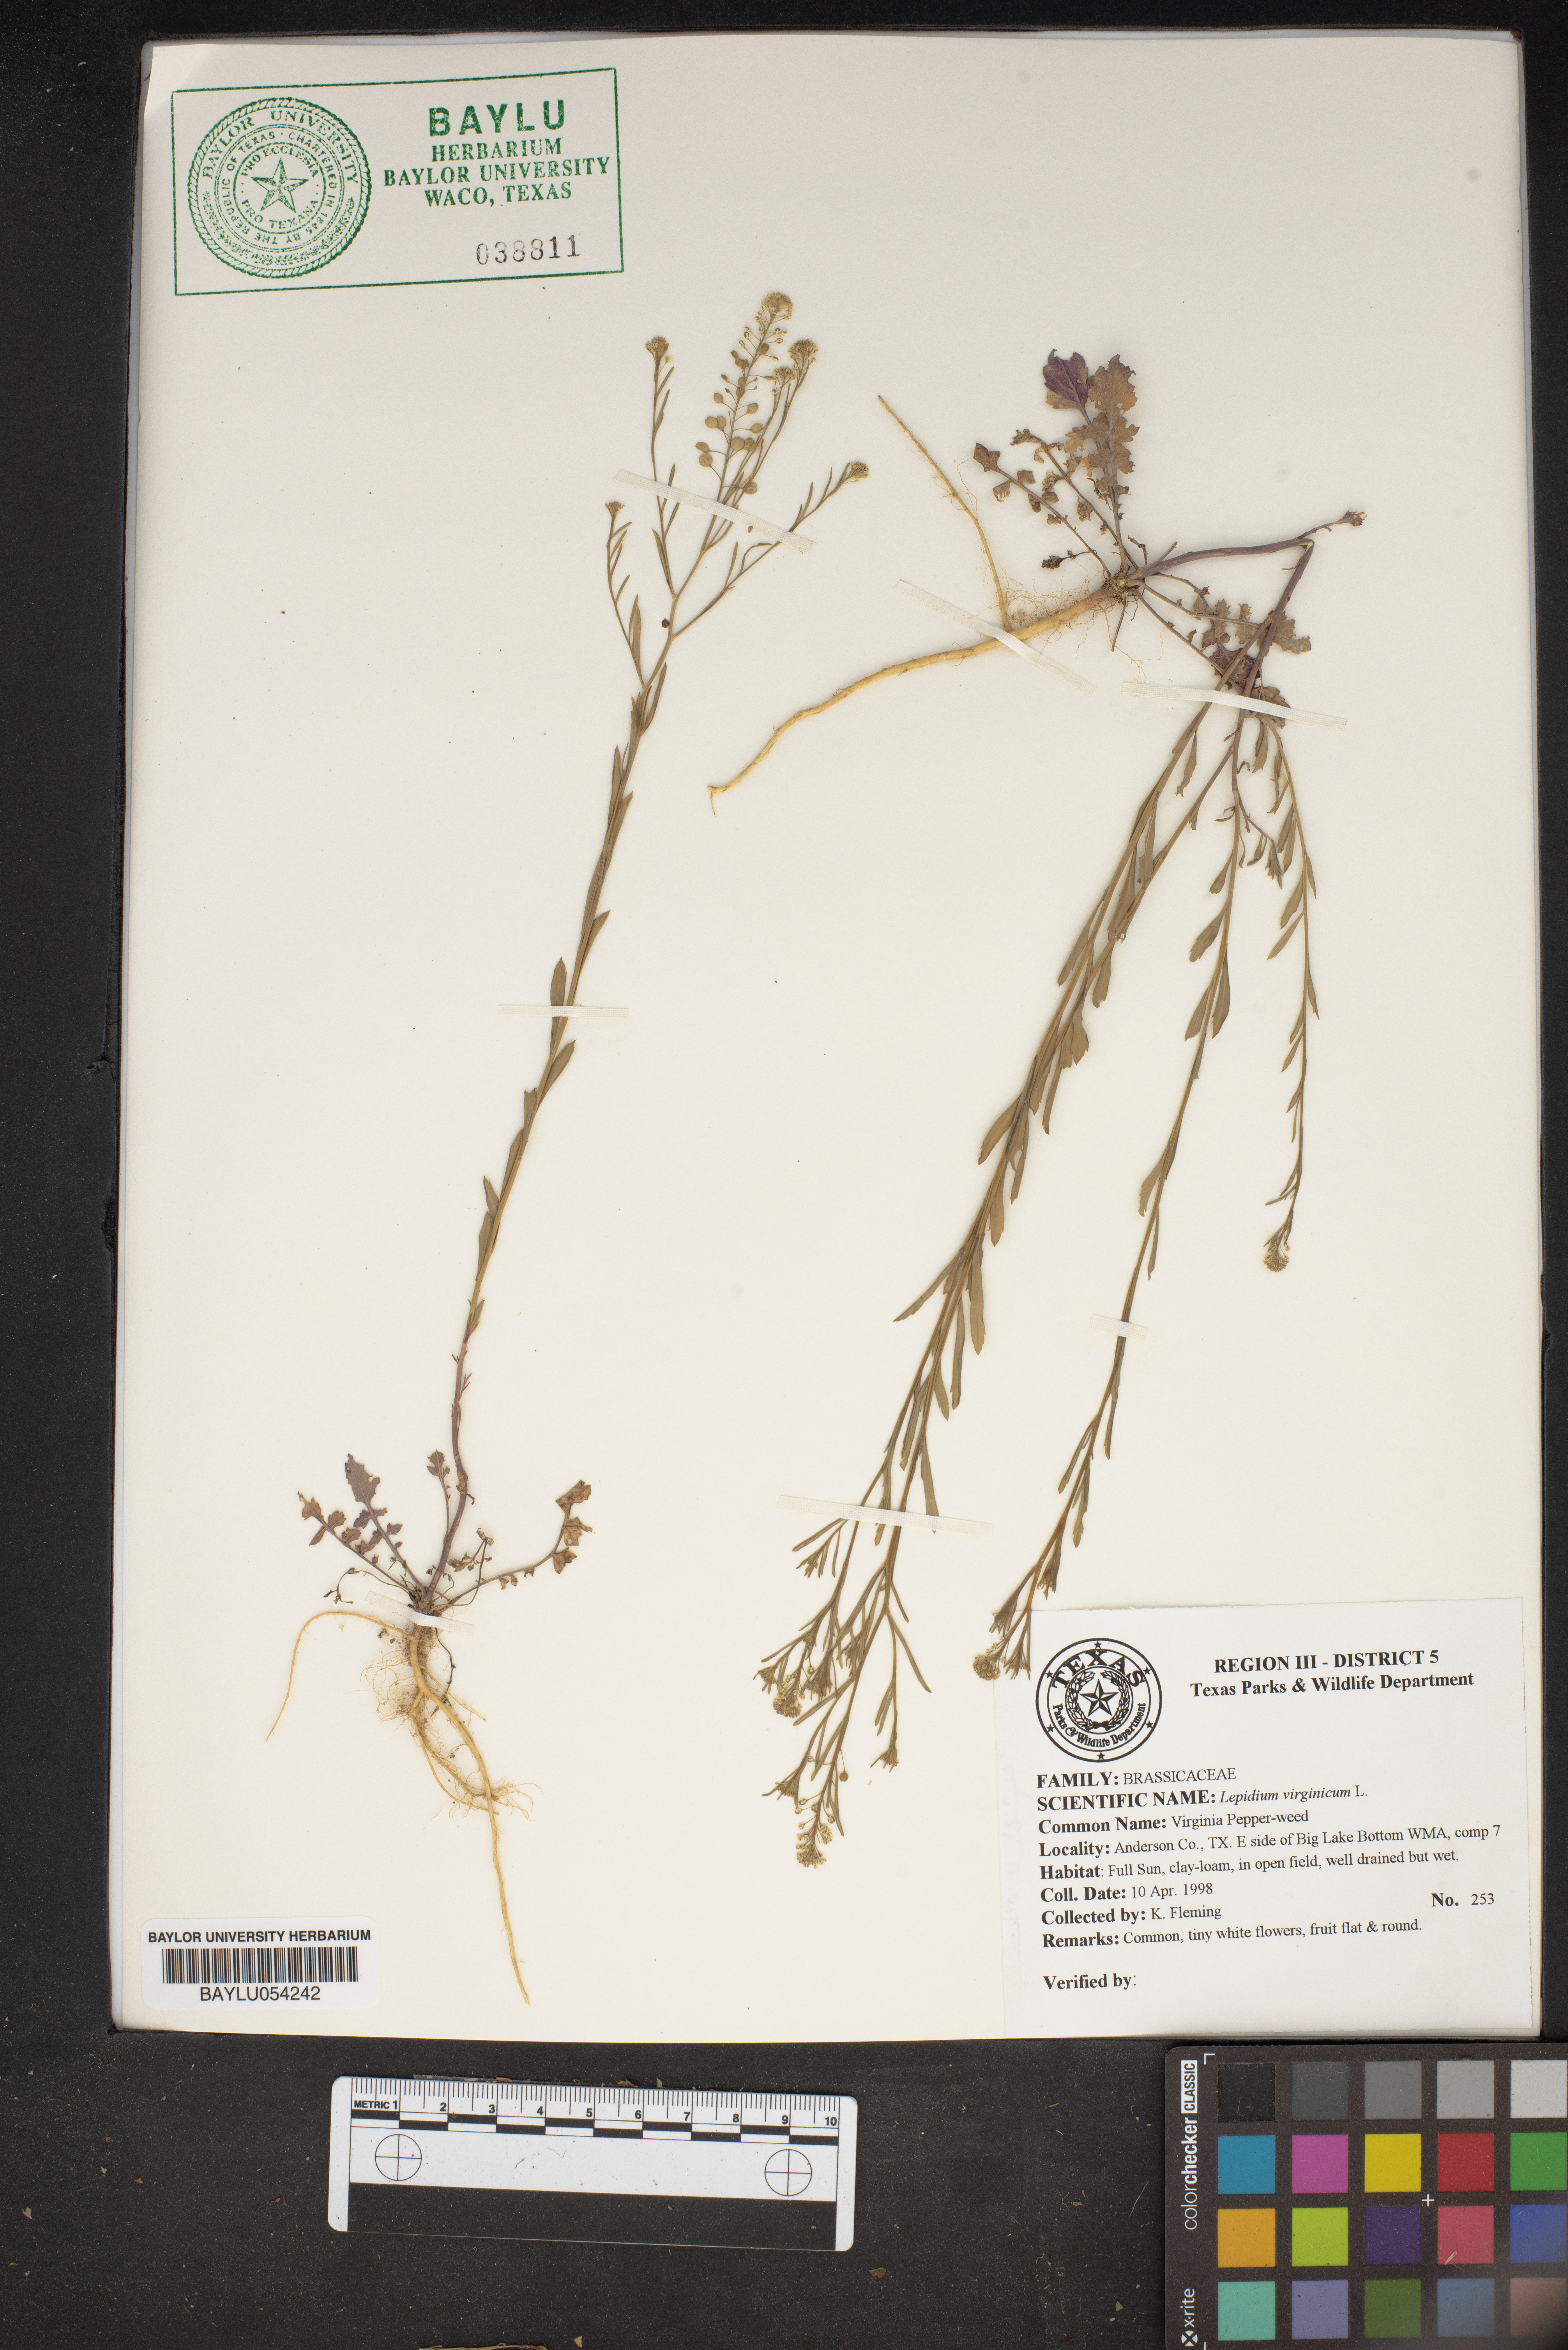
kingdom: Plantae
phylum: Tracheophyta
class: Magnoliopsida
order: Brassicales
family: Brassicaceae
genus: Lepidium
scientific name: Lepidium virginicum
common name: Least pepperwort
